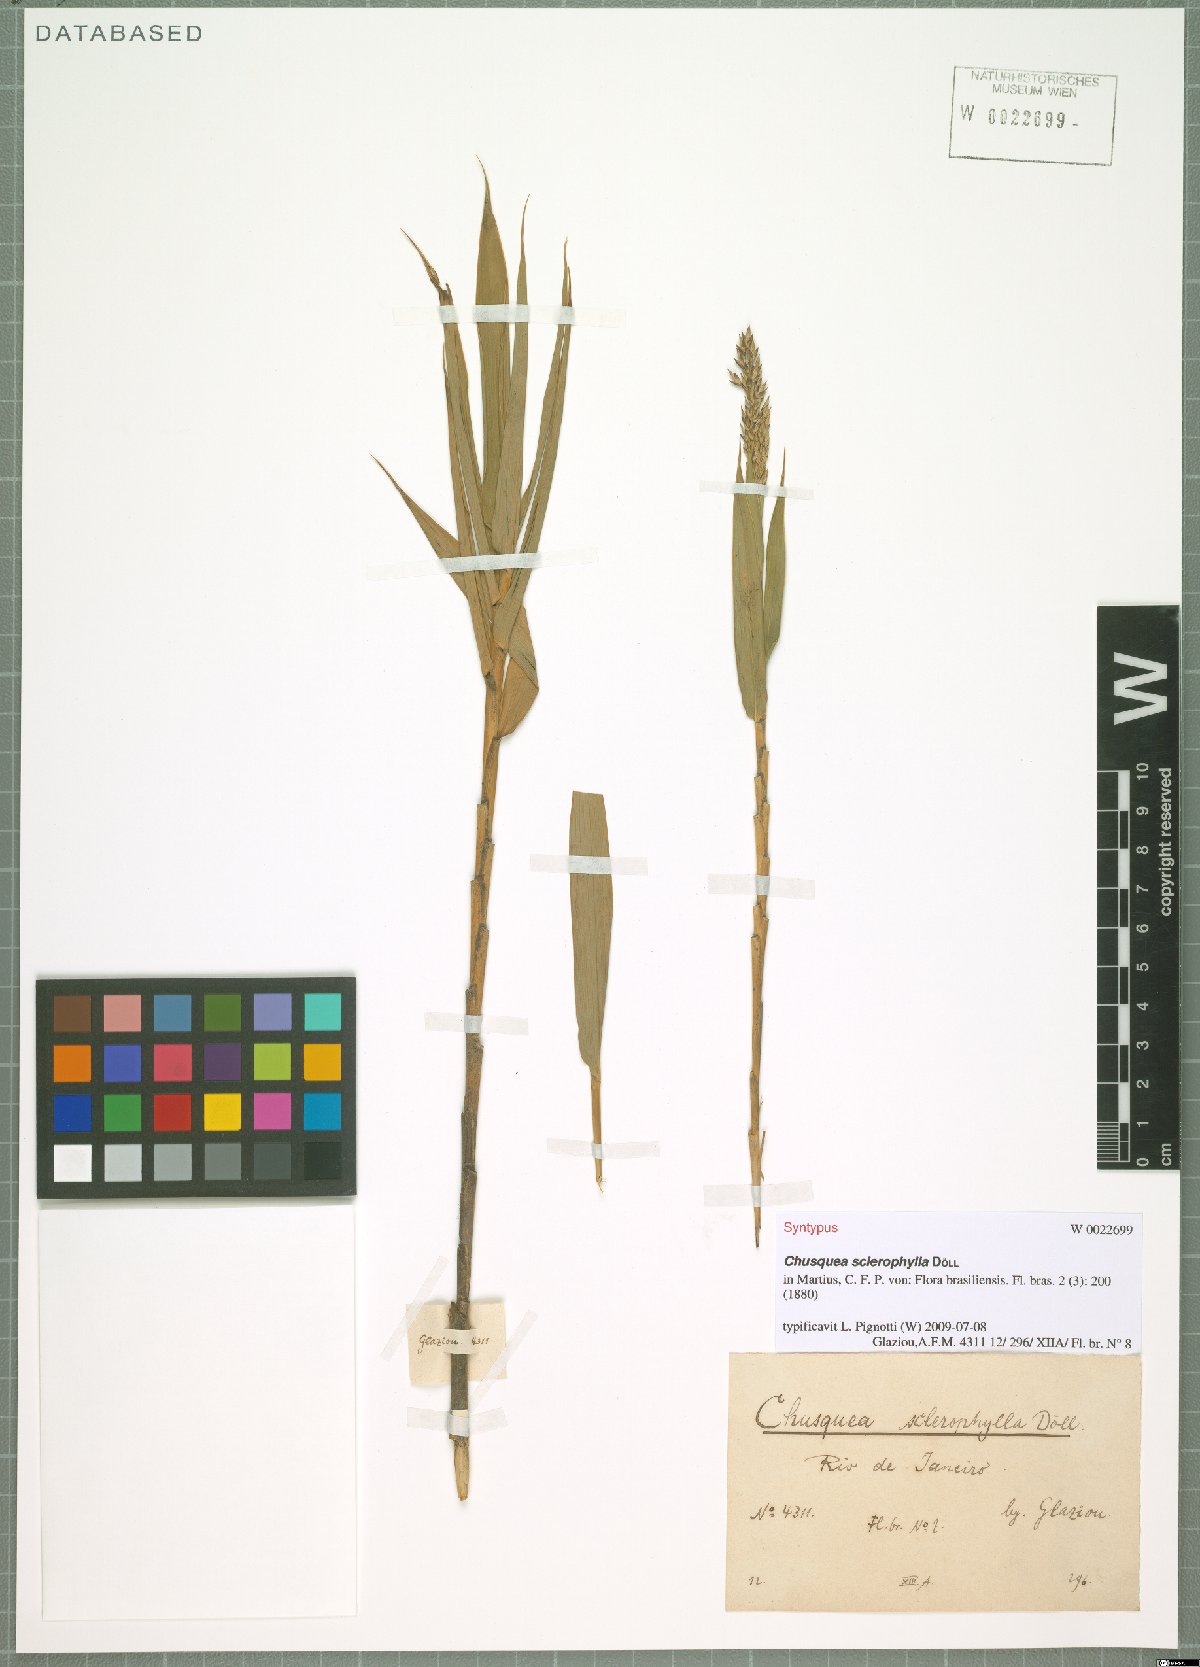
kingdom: Plantae
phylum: Tracheophyta
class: Liliopsida
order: Poales
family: Poaceae
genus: Chusquea
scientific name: Chusquea sclerophylla
